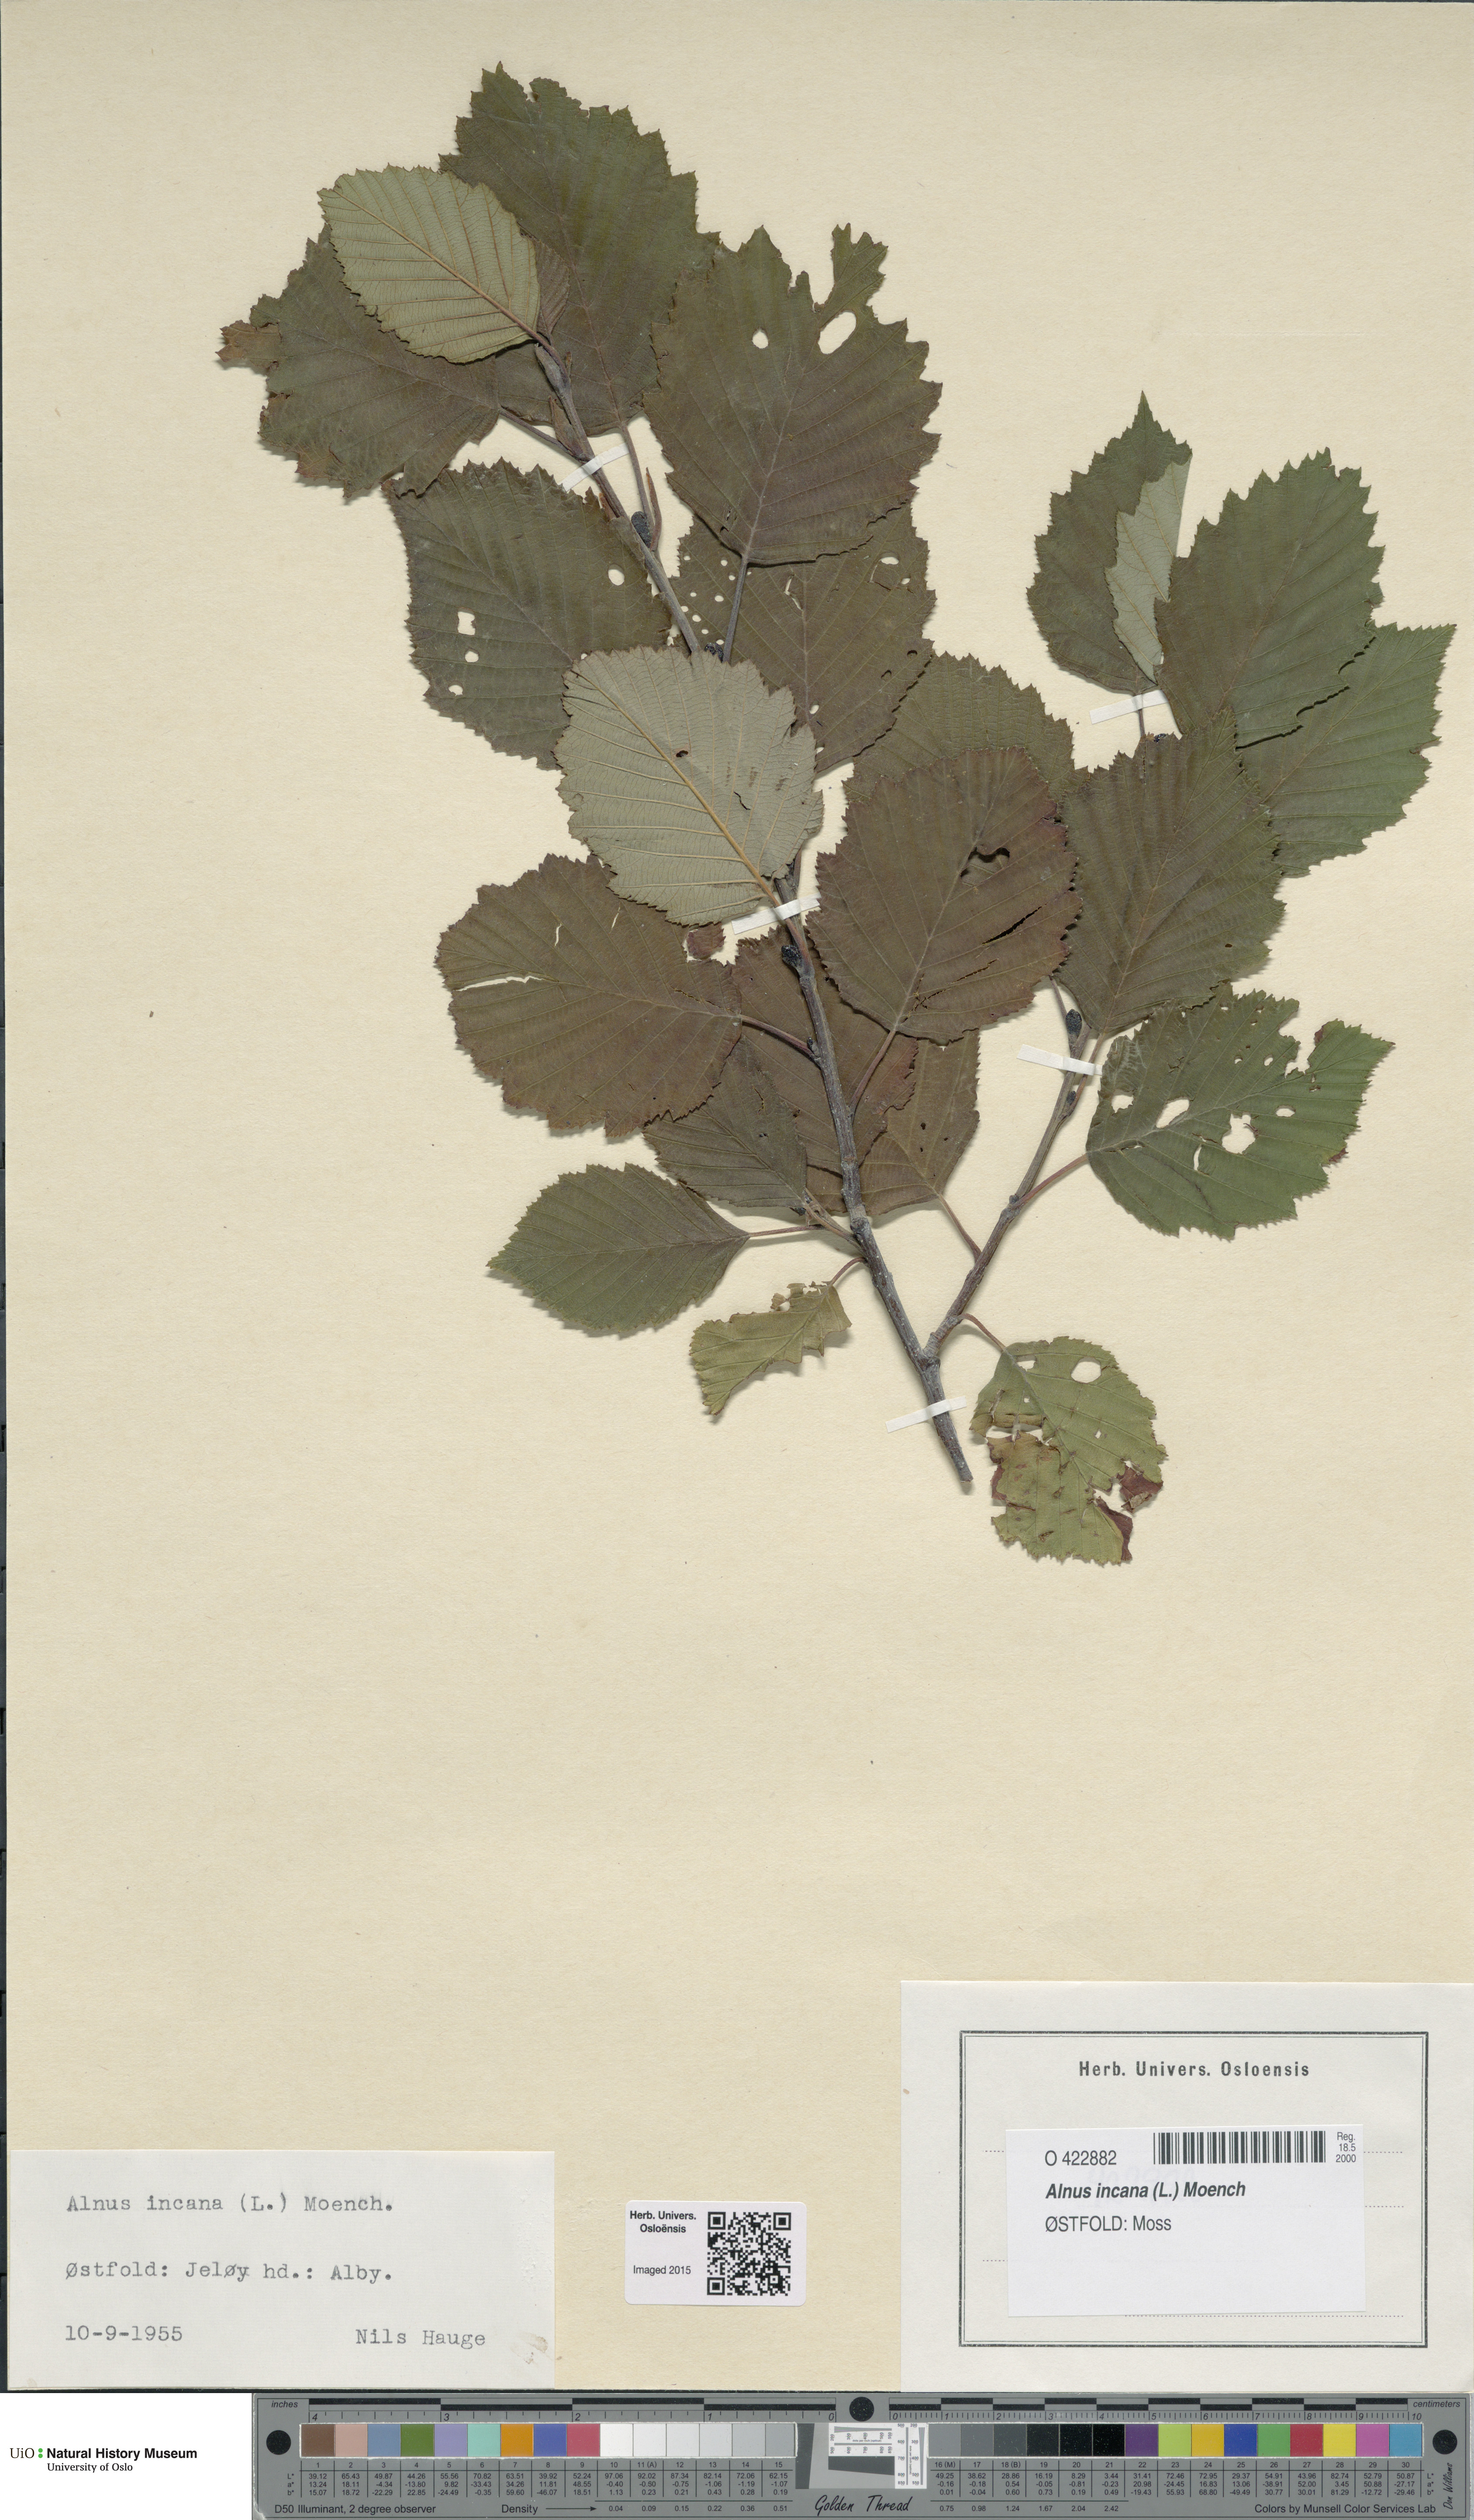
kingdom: Plantae
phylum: Tracheophyta
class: Magnoliopsida
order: Fagales
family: Betulaceae
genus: Alnus
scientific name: Alnus incana
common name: Grey alder
